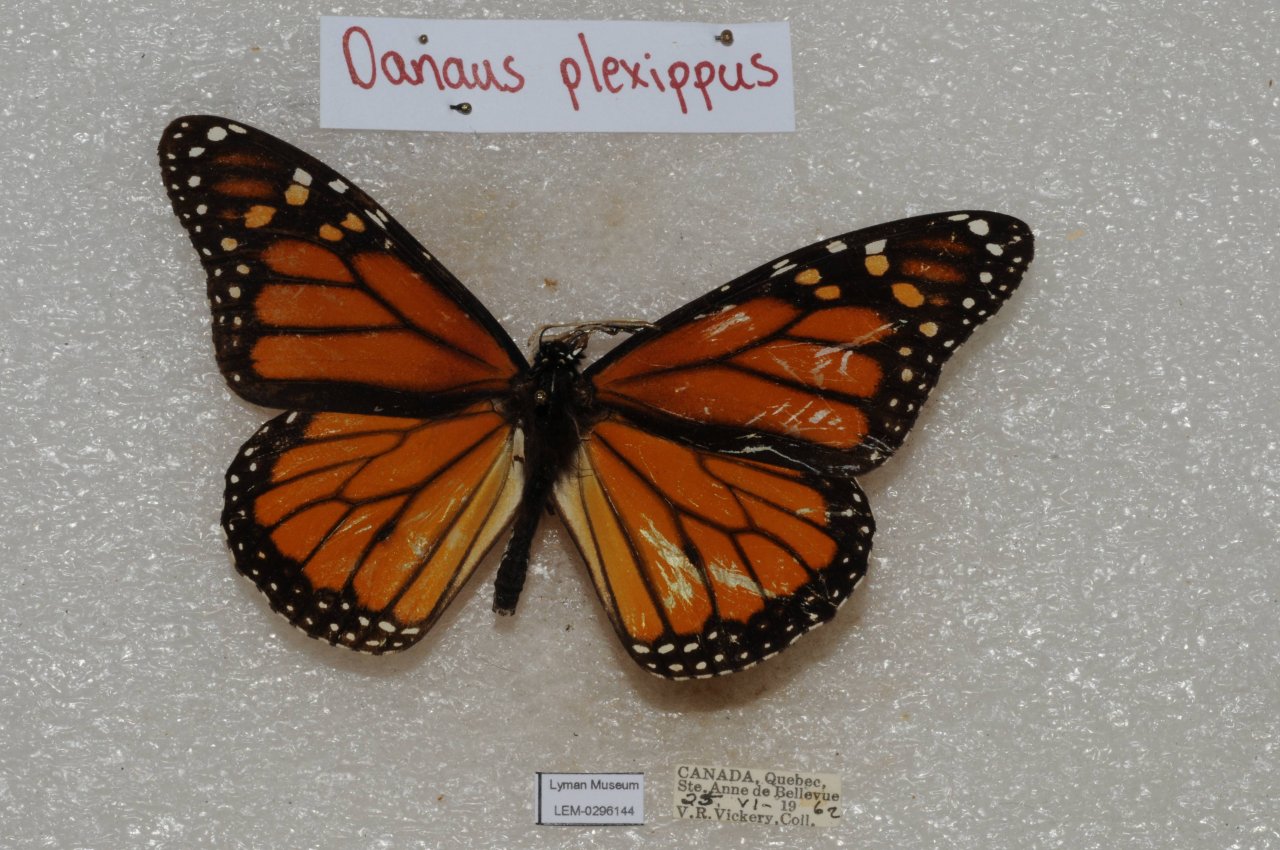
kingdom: Animalia
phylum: Arthropoda
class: Insecta
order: Lepidoptera
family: Nymphalidae
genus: Danaus
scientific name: Danaus plexippus
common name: Monarch
